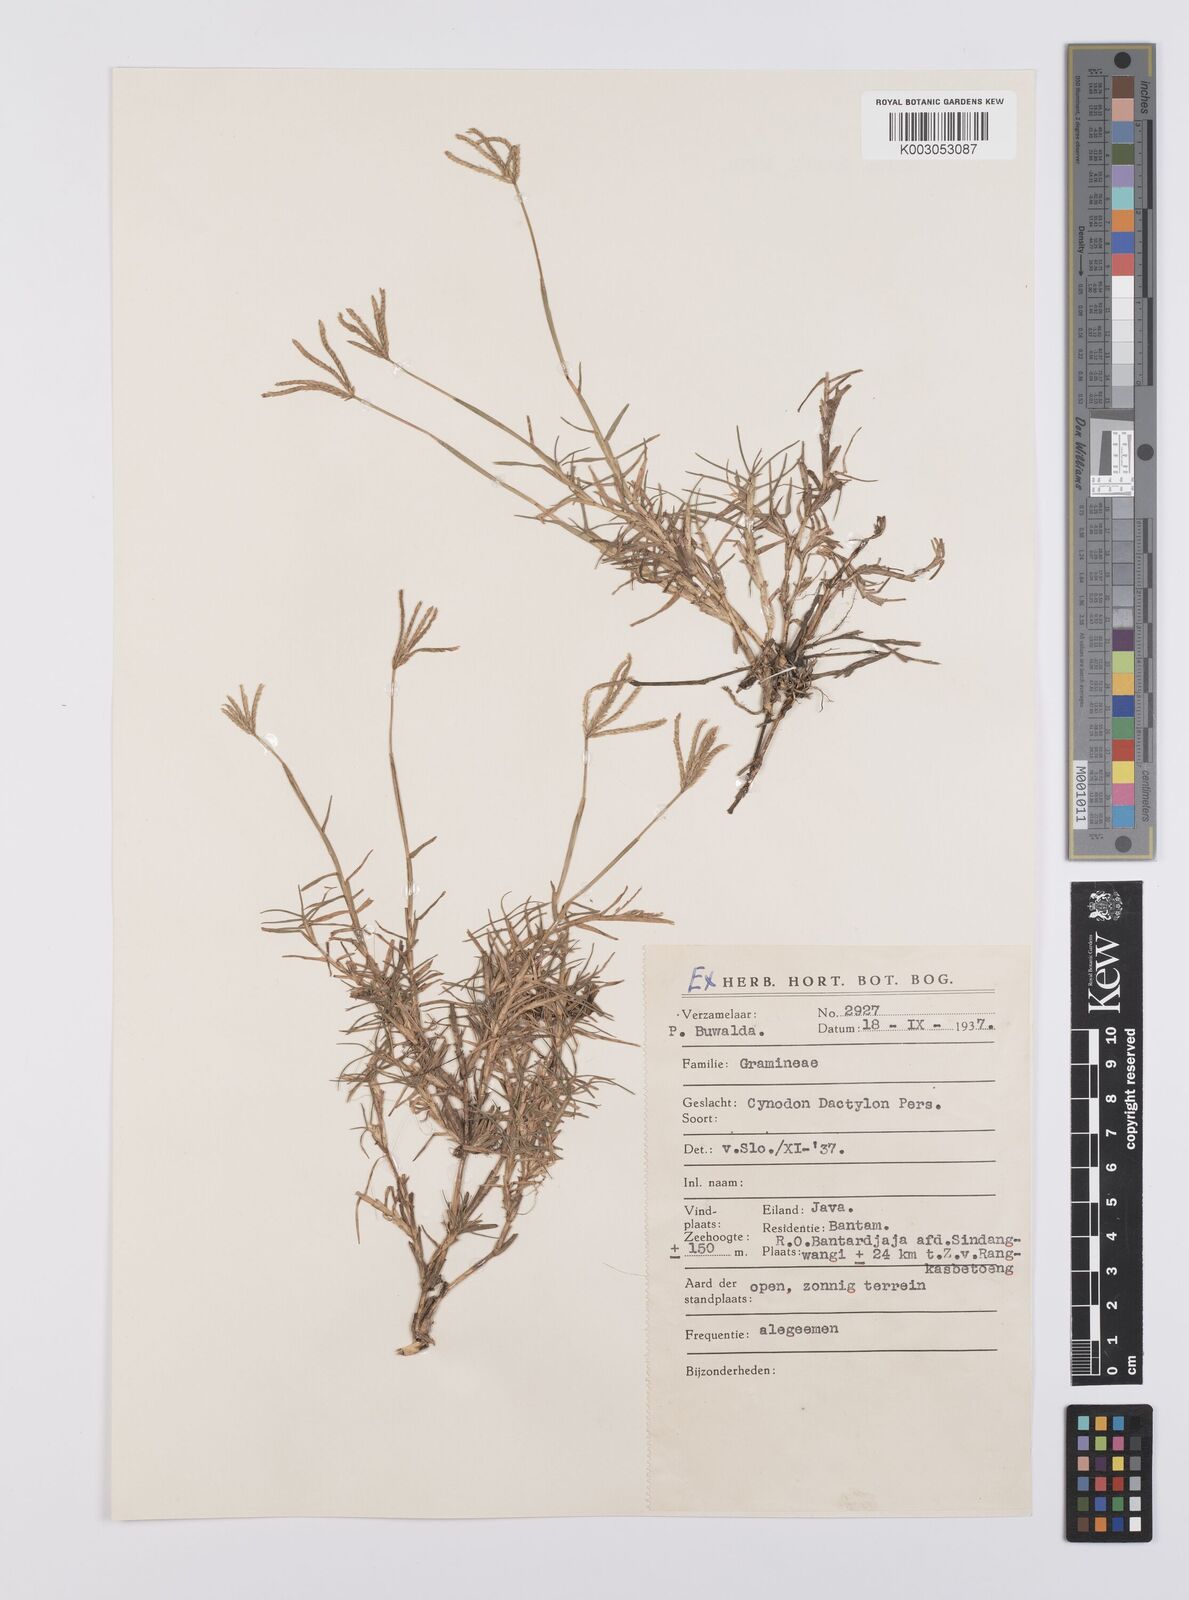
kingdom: Plantae
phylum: Tracheophyta
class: Liliopsida
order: Poales
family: Poaceae
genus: Cynodon
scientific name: Cynodon dactylon
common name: Bermuda grass
